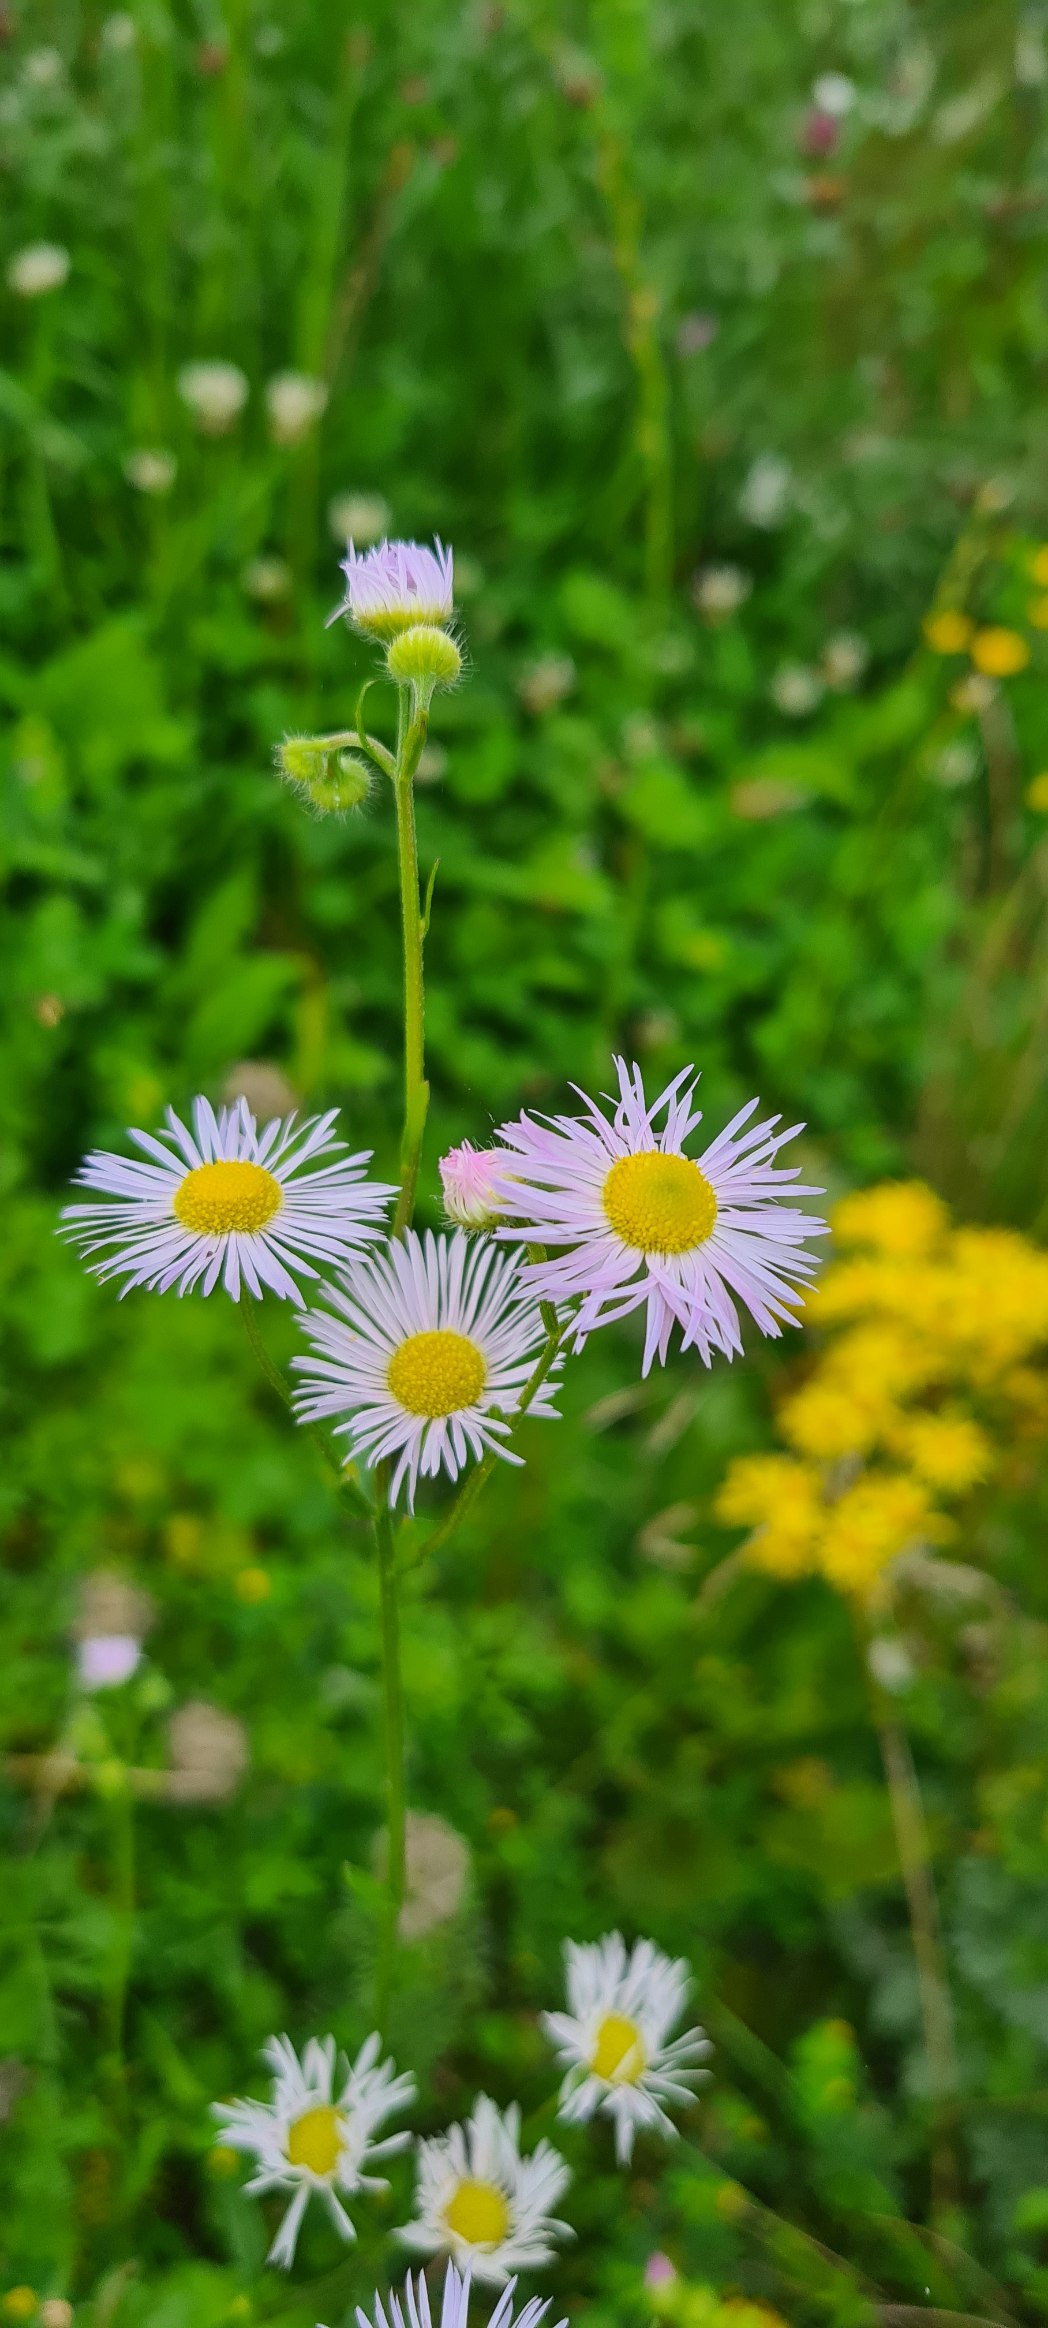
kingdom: Plantae
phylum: Tracheophyta
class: Magnoliopsida
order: Asterales
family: Asteraceae
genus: Erigeron
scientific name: Erigeron annuus
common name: Smalstråle
